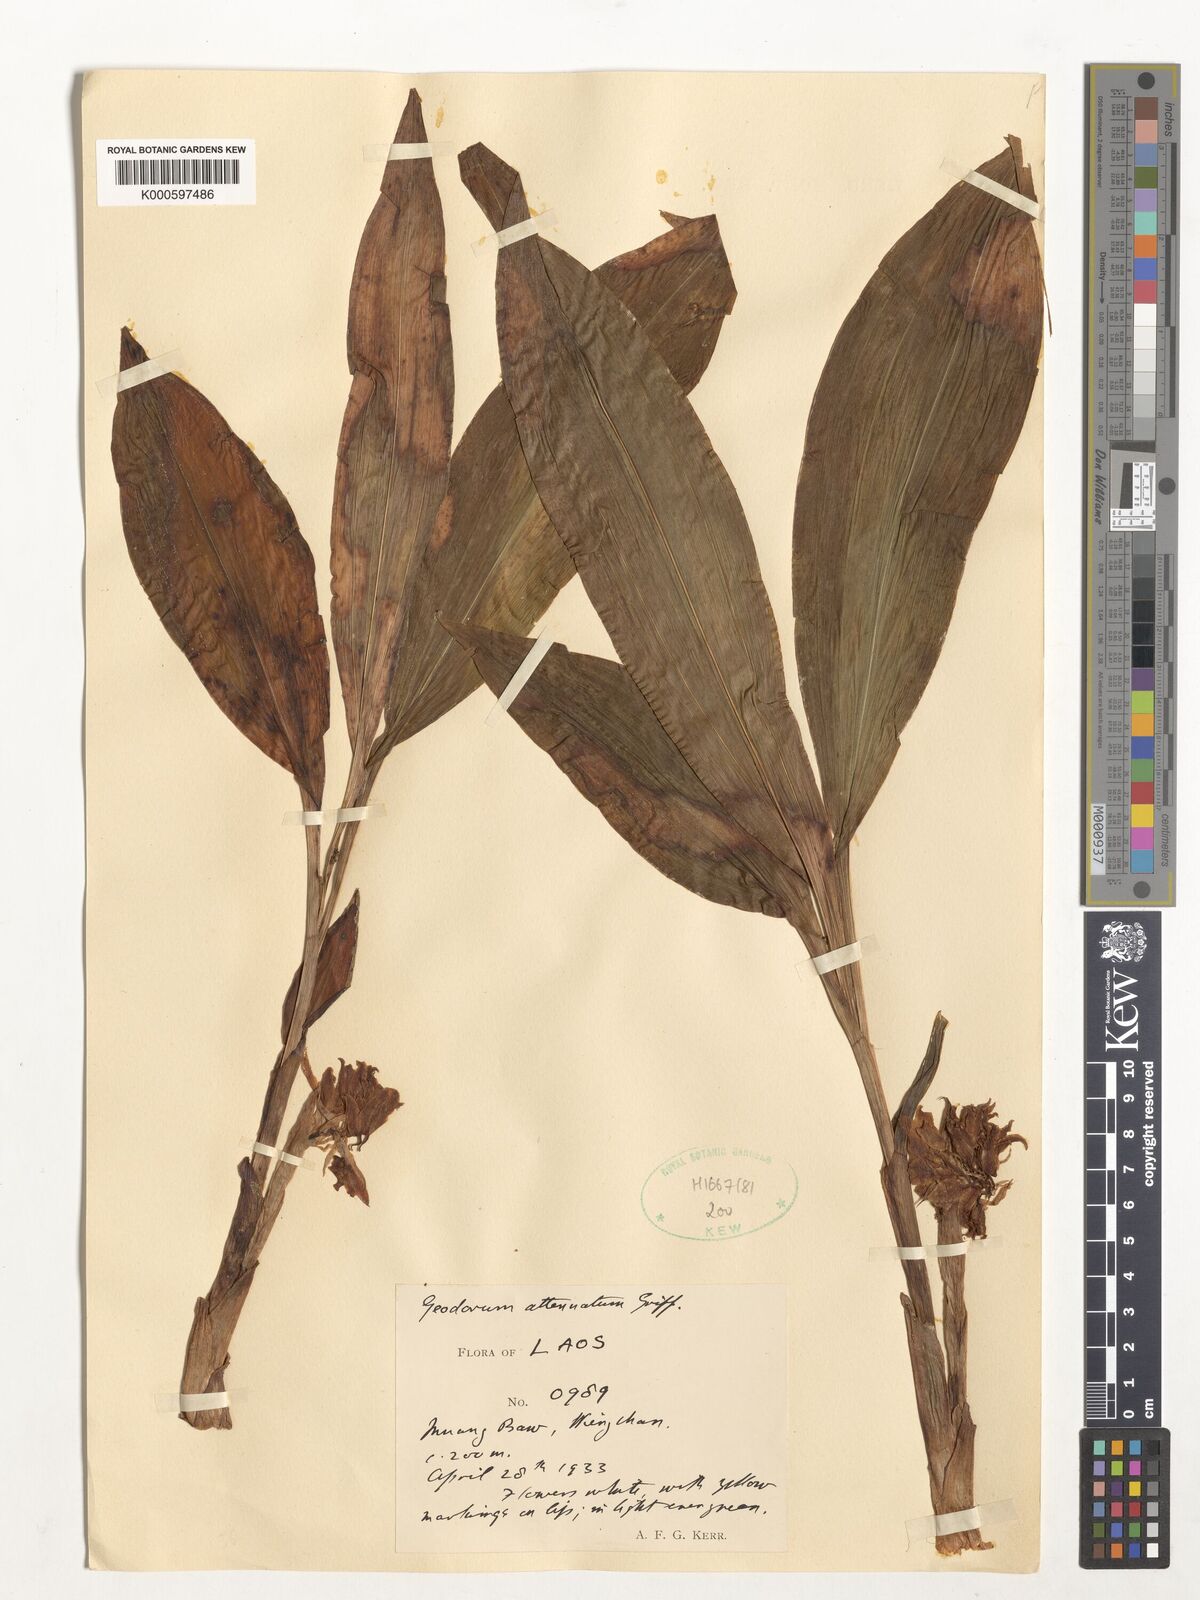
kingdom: Plantae
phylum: Tracheophyta
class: Liliopsida
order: Asparagales
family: Orchidaceae
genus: Eulophia
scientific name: Eulophia attenuata
